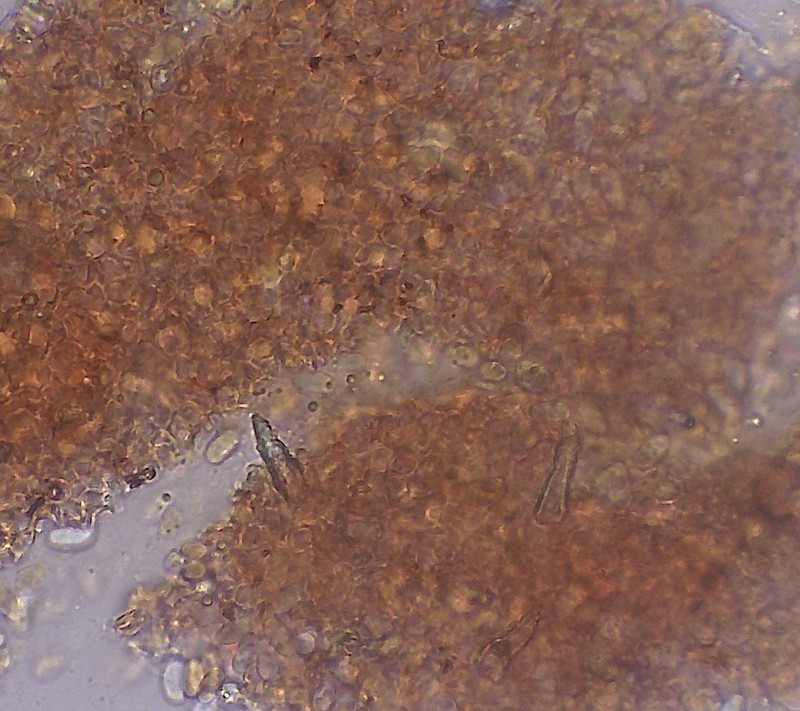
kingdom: Fungi
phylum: Basidiomycota
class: Agaricomycetes
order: Russulales
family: Peniophoraceae
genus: Peniophora
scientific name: Peniophora incarnata
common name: laksefarvet voksskind
